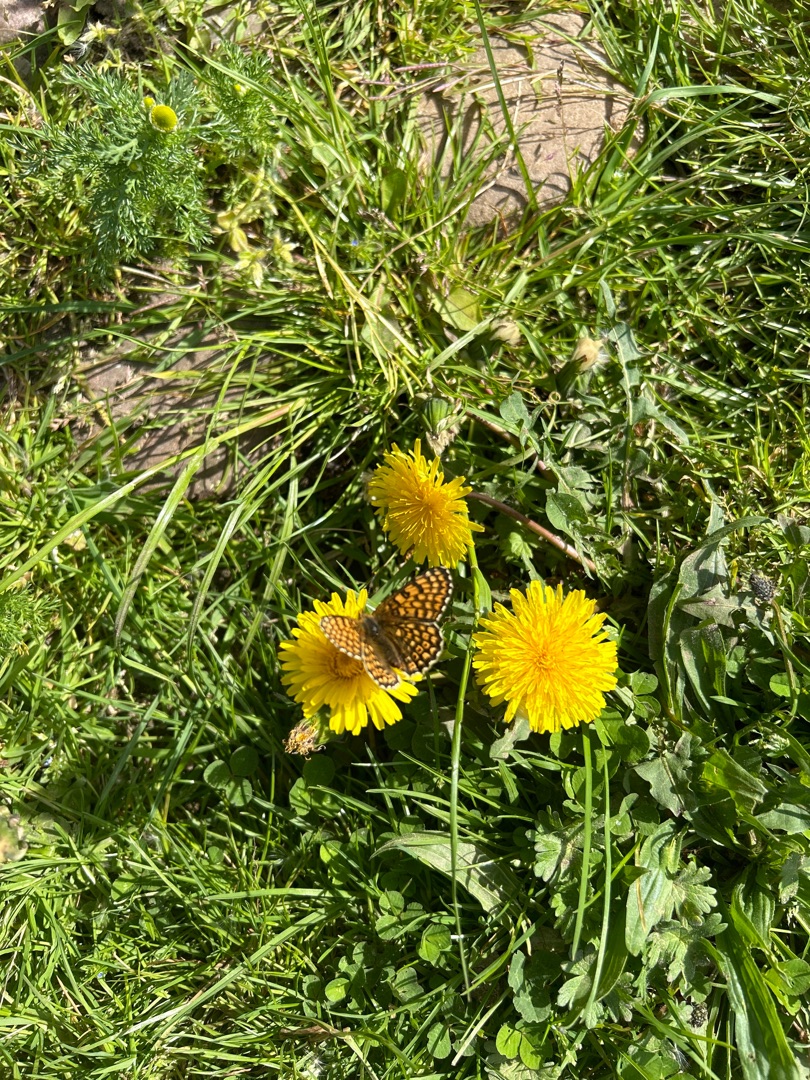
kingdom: Animalia
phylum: Arthropoda
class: Insecta
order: Lepidoptera
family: Nymphalidae
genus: Melitaea
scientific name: Melitaea cinxia
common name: Okkergul pletvinge
